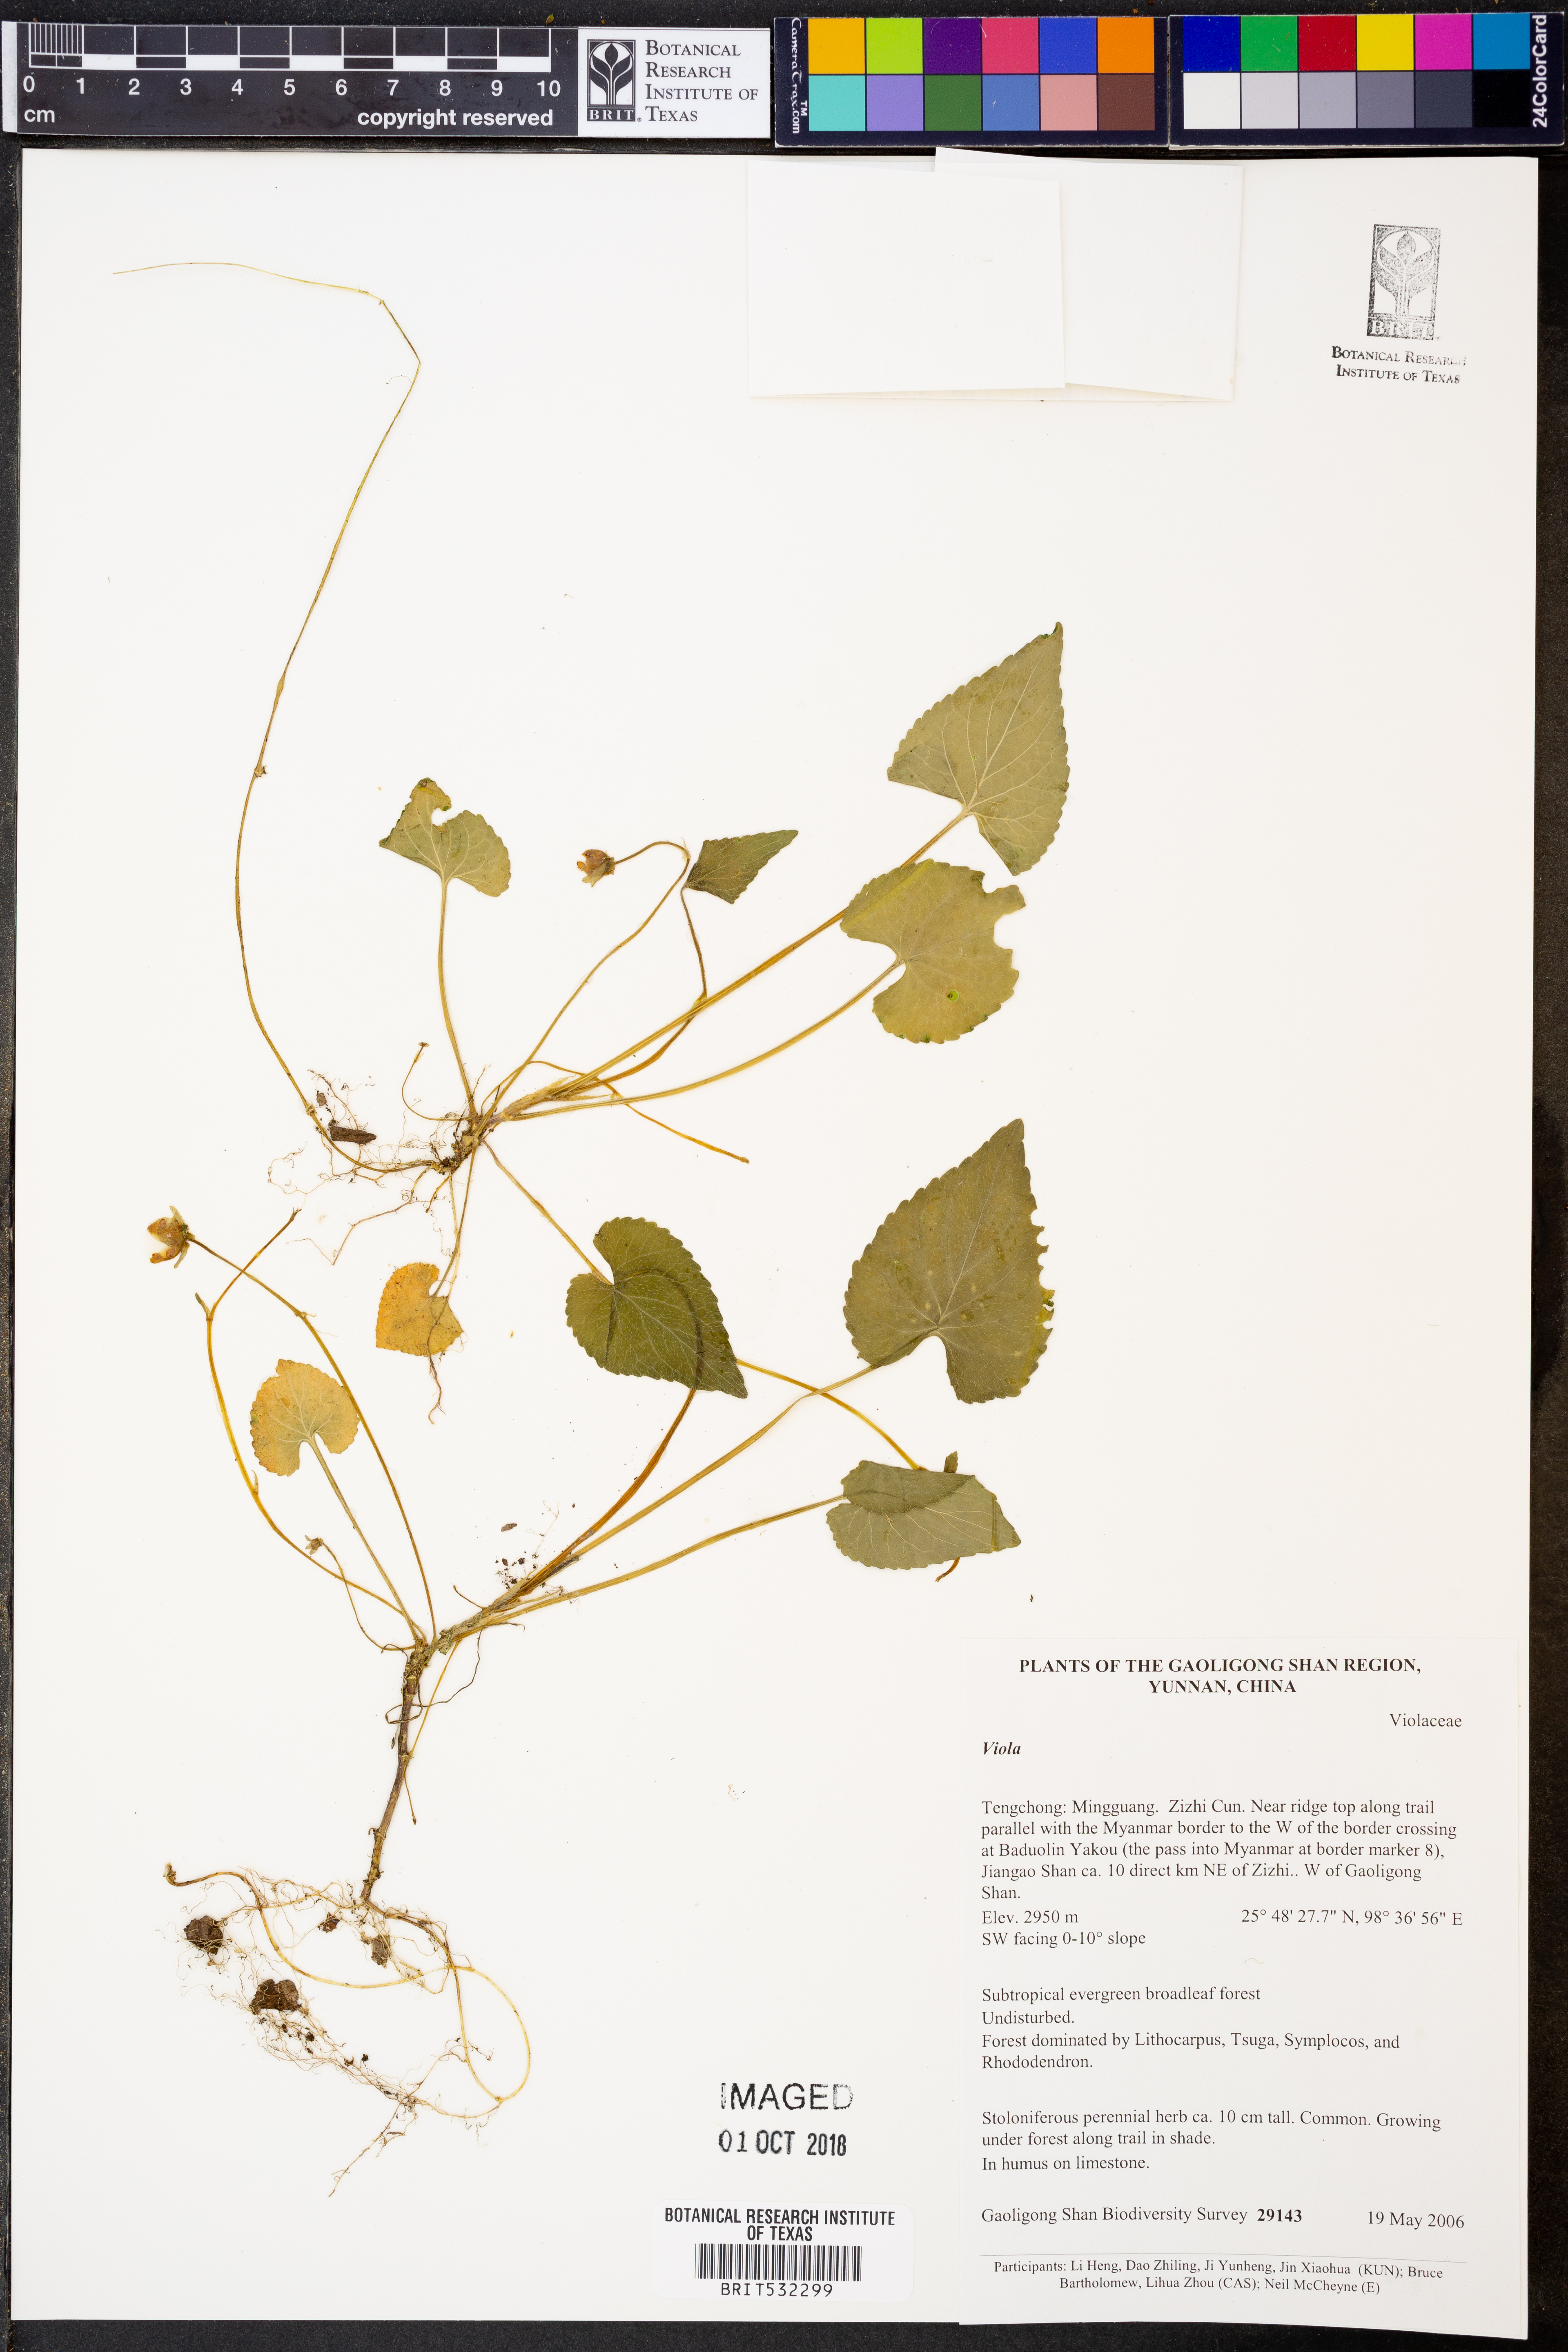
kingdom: Plantae
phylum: Tracheophyta
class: Magnoliopsida
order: Malpighiales
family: Violaceae
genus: Viola
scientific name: Viola
